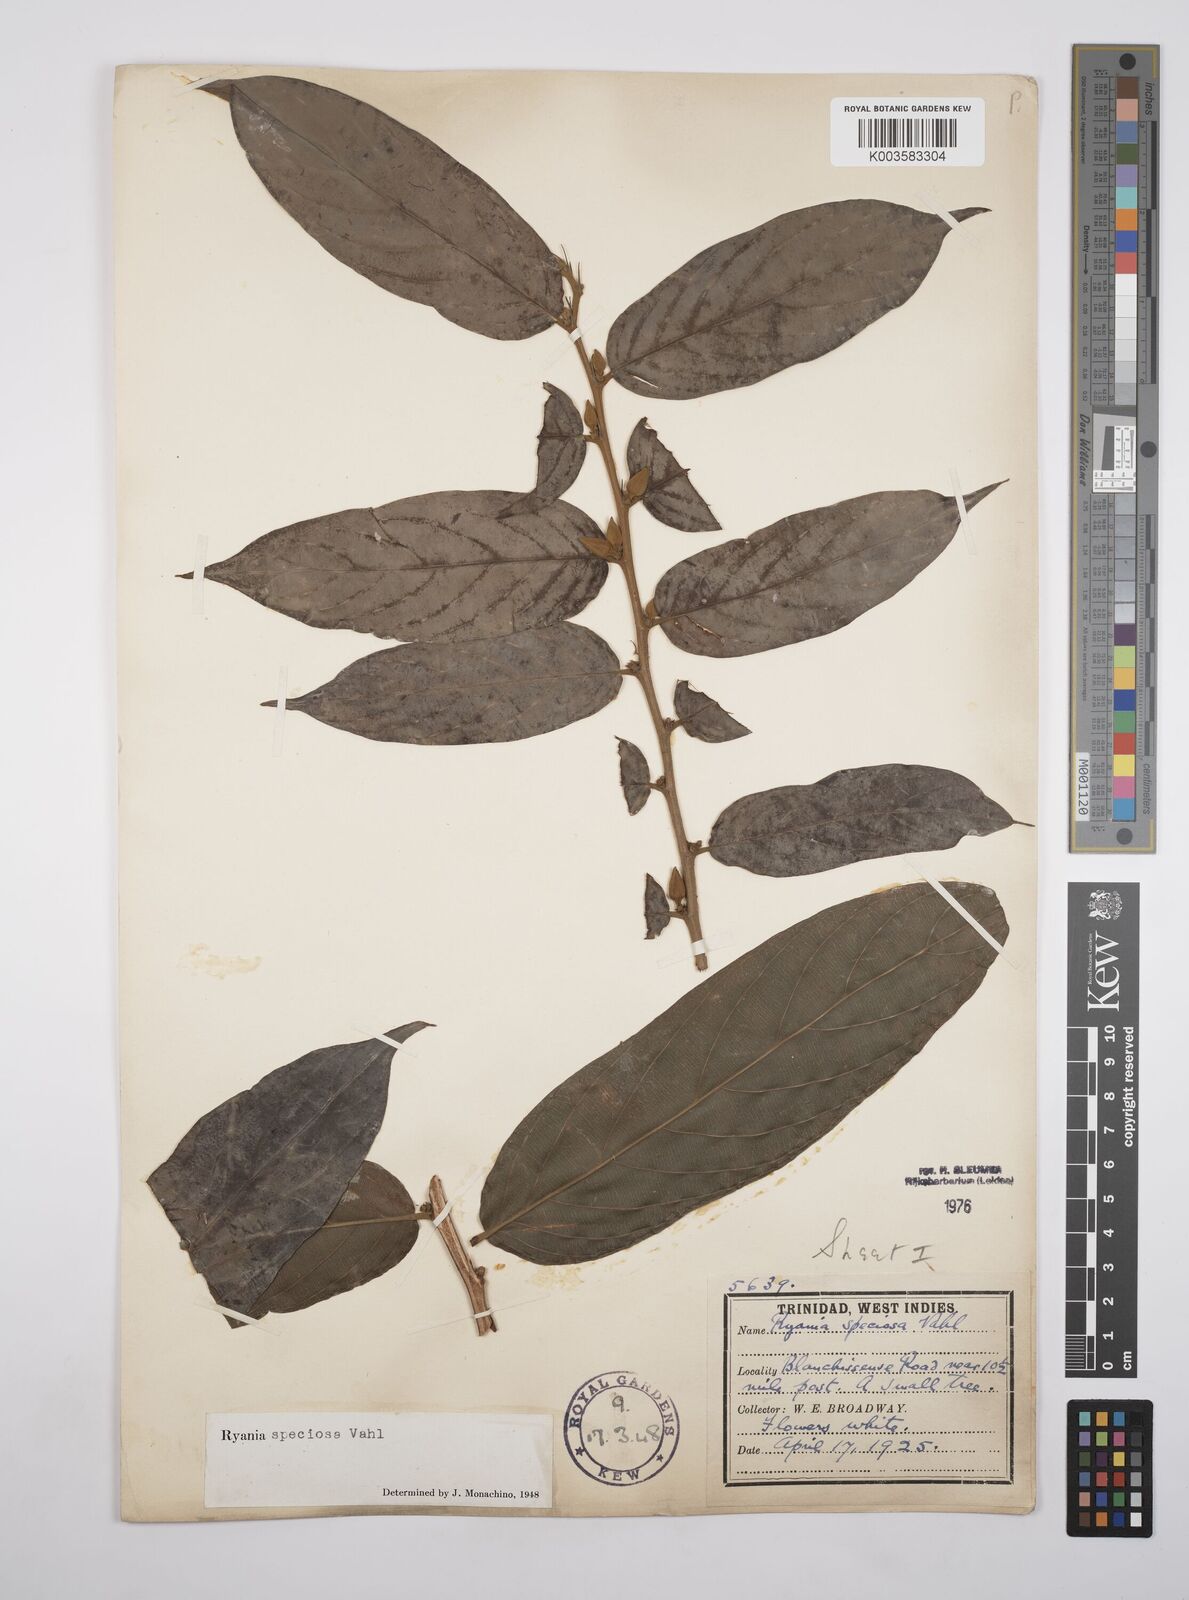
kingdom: Plantae
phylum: Tracheophyta
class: Magnoliopsida
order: Malpighiales
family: Salicaceae
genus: Ryania
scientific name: Ryania speciosa
